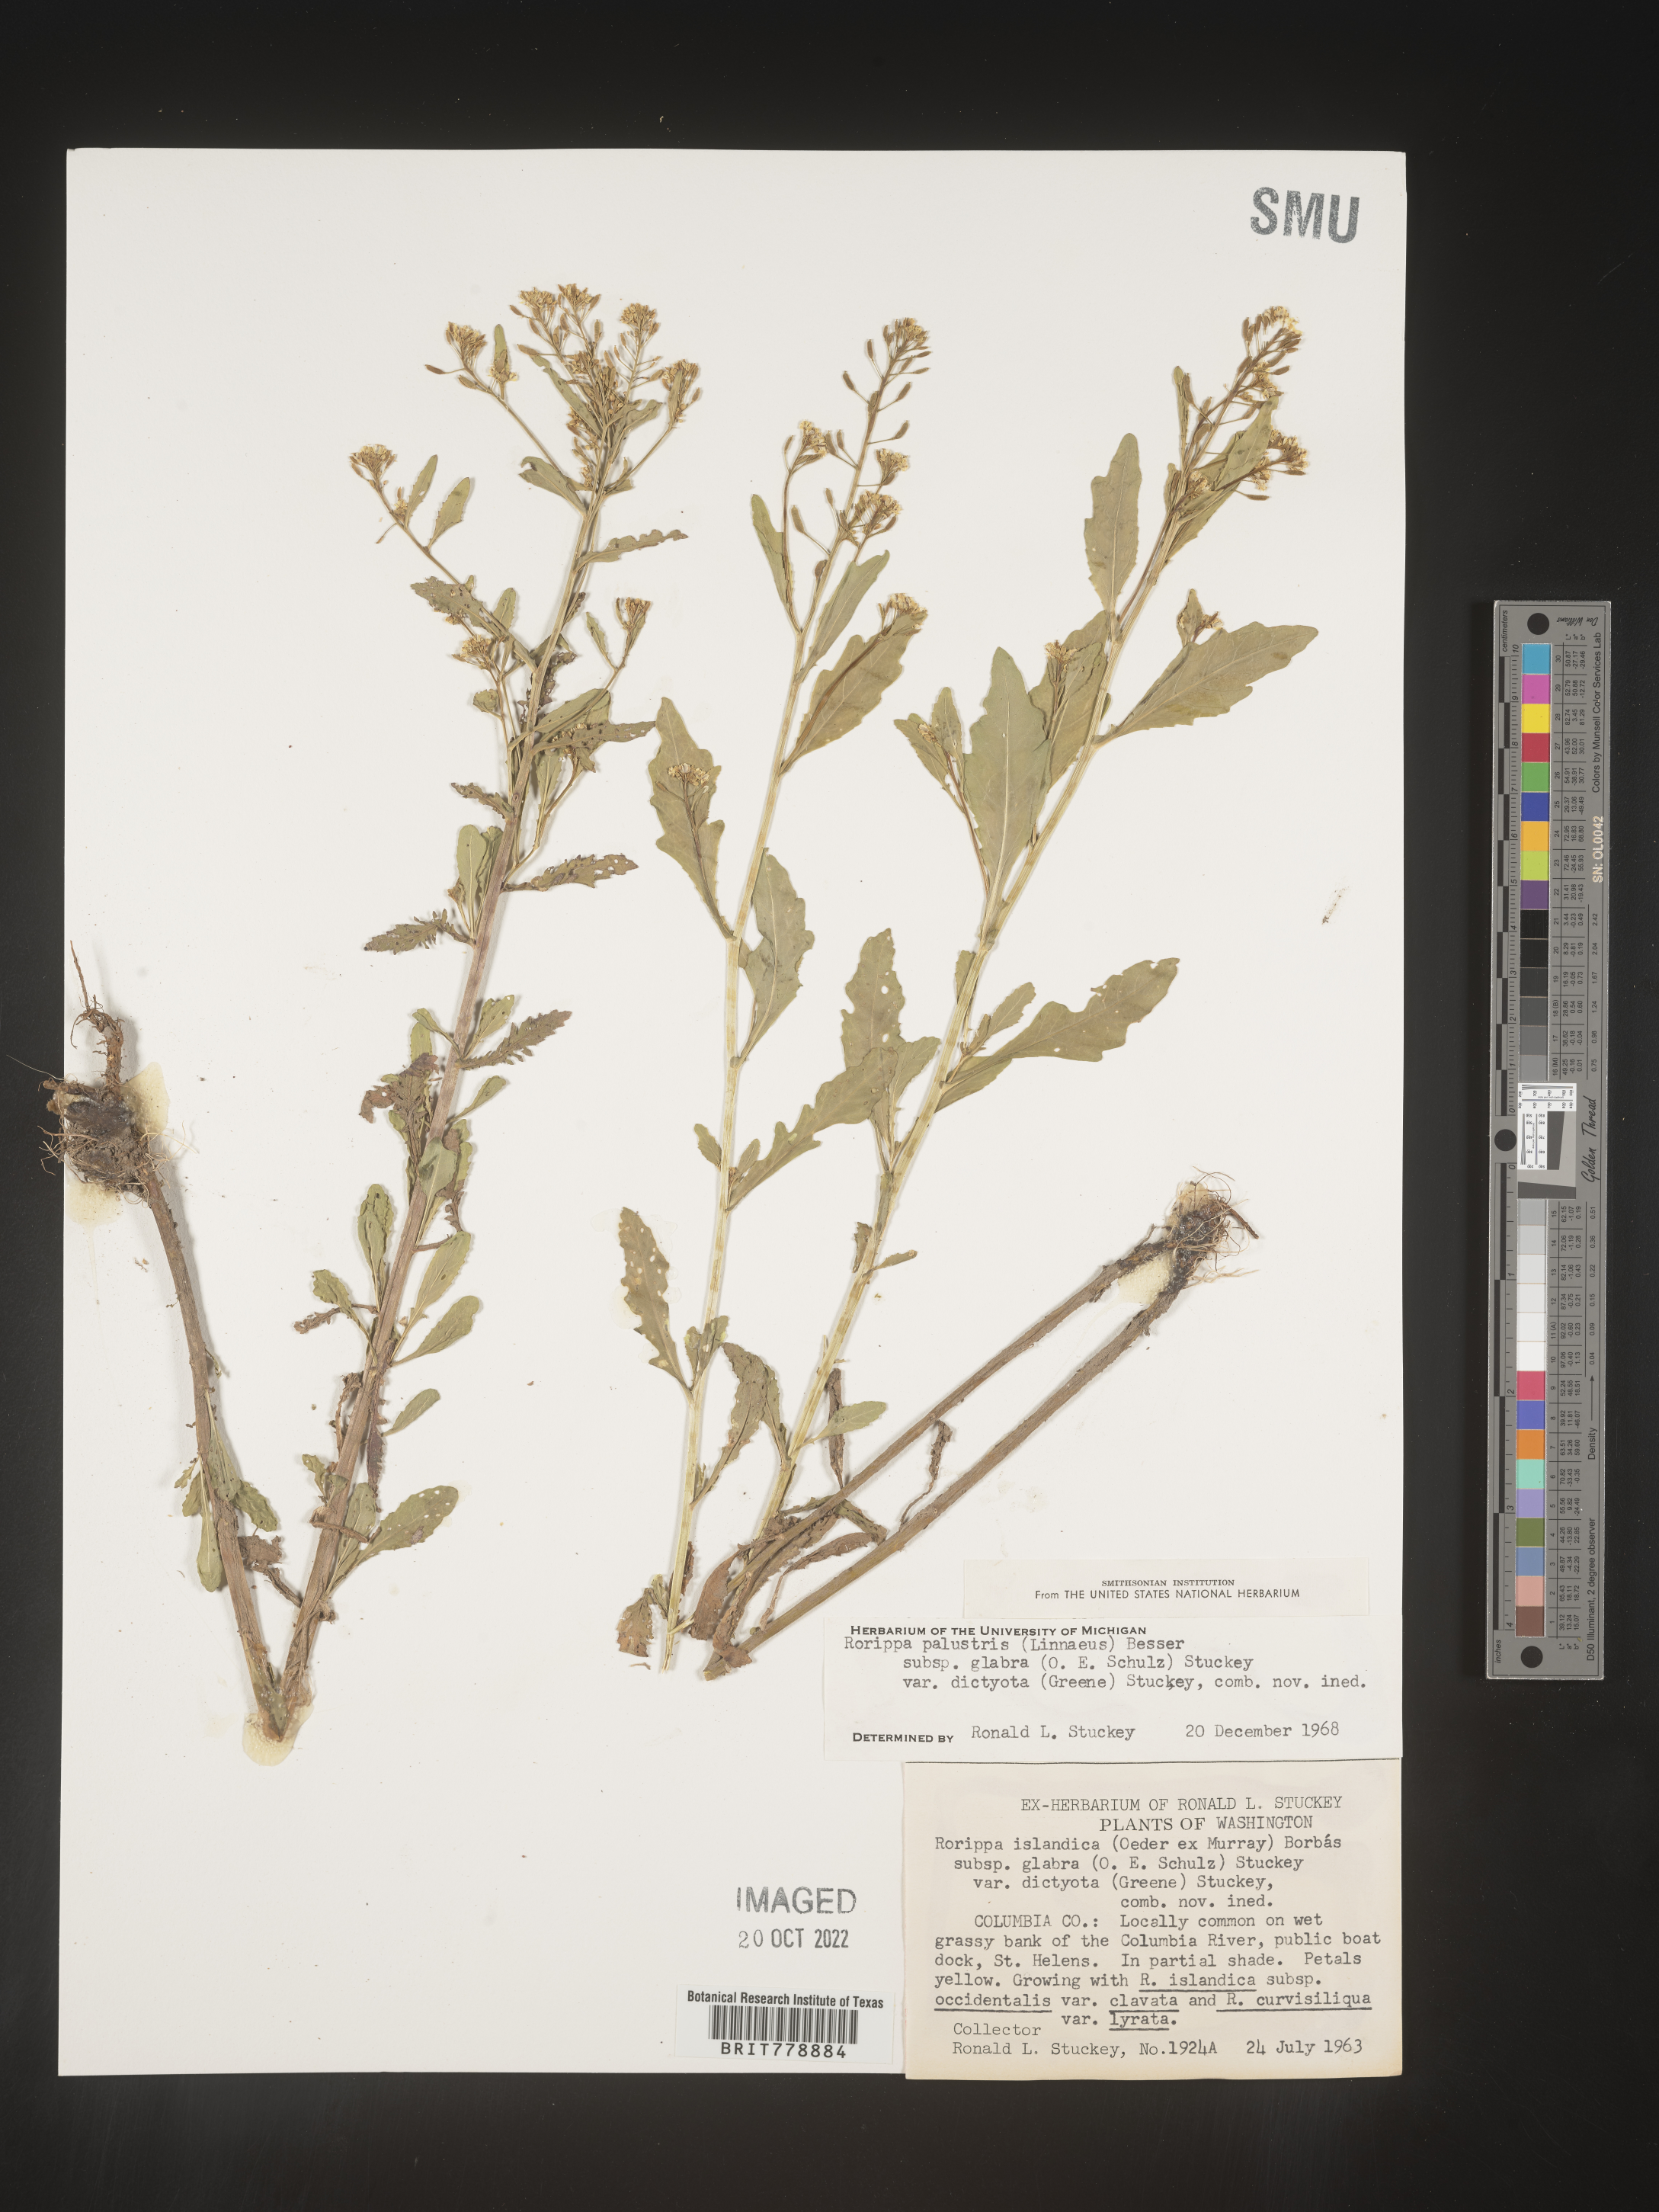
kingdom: Plantae
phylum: Tracheophyta
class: Magnoliopsida
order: Brassicales
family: Brassicaceae
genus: Rorippa
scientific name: Rorippa palustris
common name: Marsh yellow-cress
